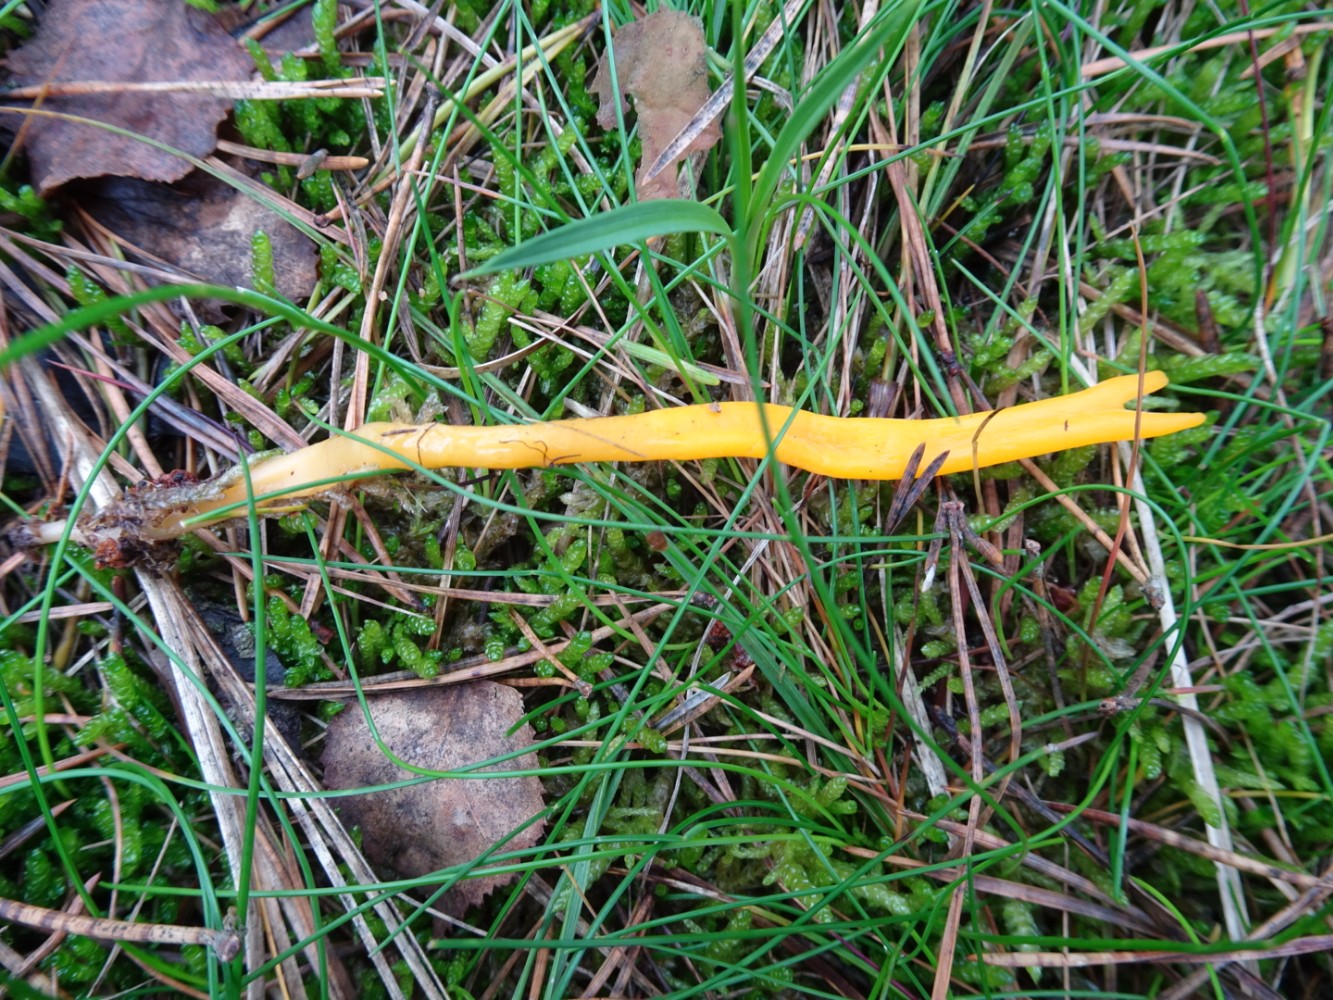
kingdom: Fungi
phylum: Basidiomycota
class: Dacrymycetes
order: Dacrymycetales
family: Dacrymycetaceae
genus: Calocera
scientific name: Calocera viscosa
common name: almindelig guldgaffel
